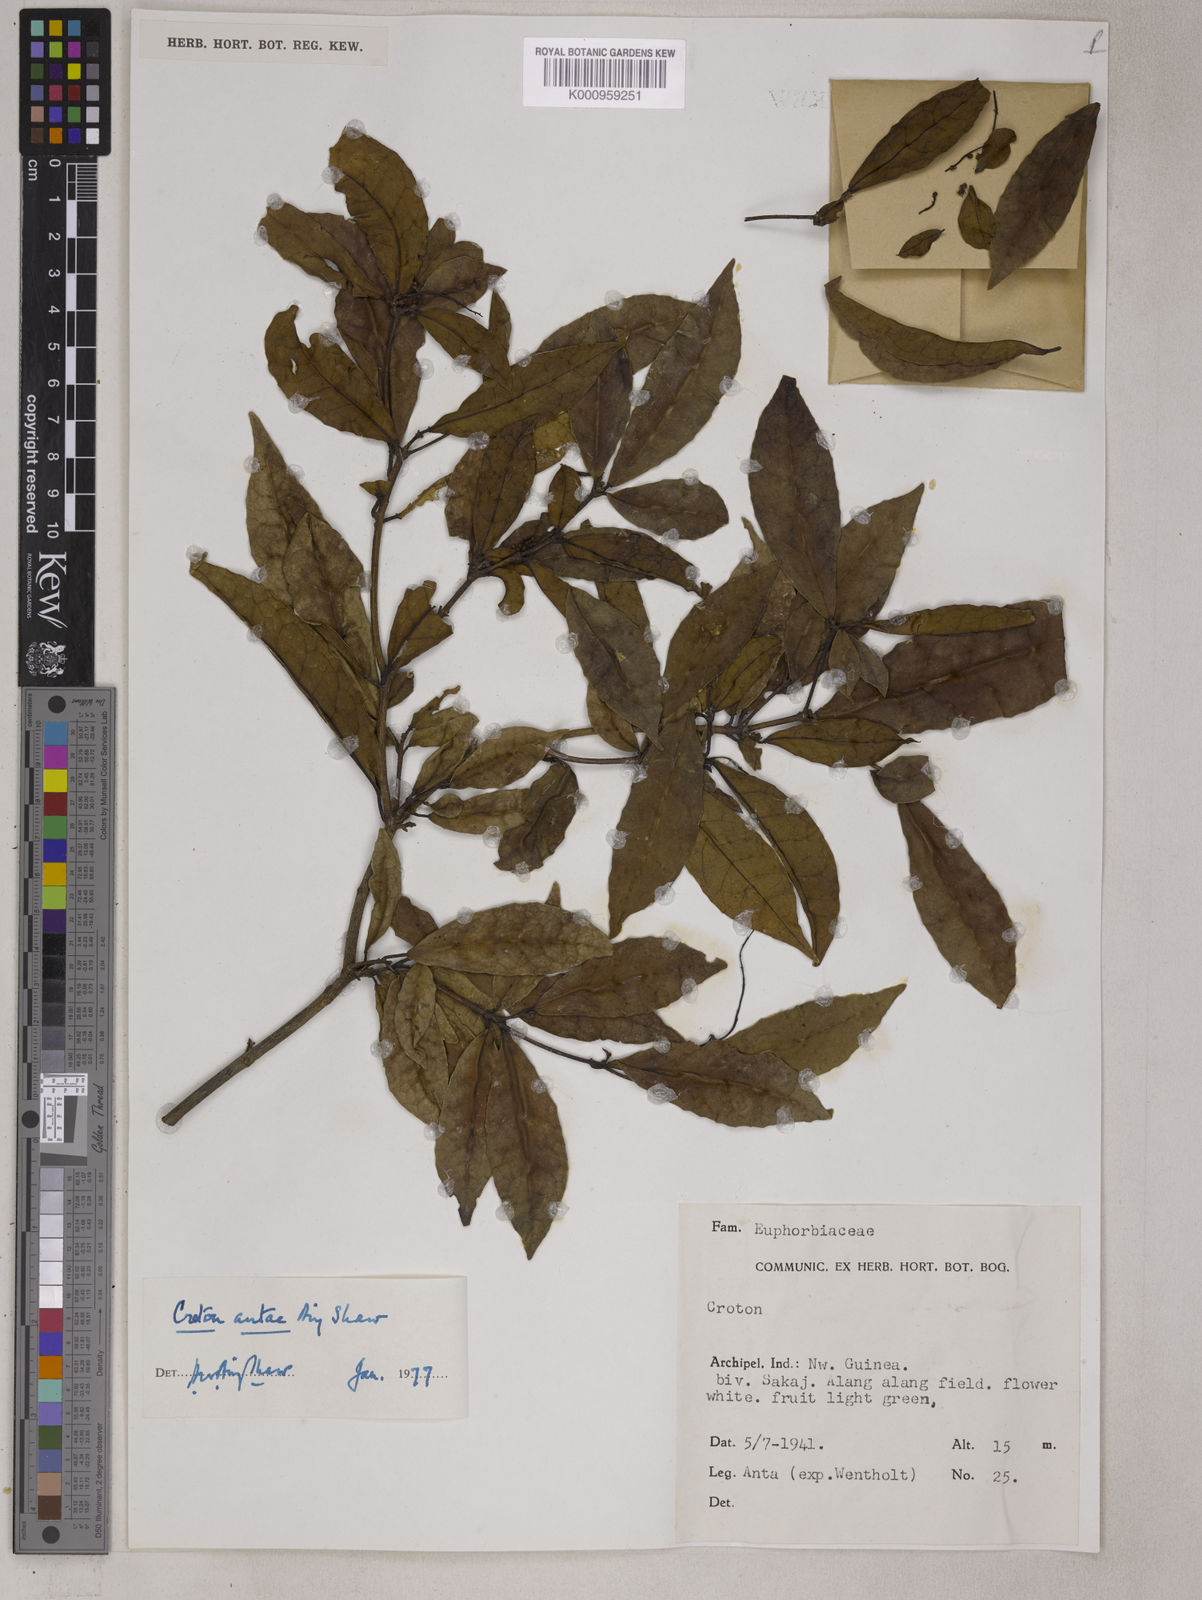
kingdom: Plantae
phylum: Tracheophyta
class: Magnoliopsida
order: Malpighiales
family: Euphorbiaceae
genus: Croton
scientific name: Croton antae
